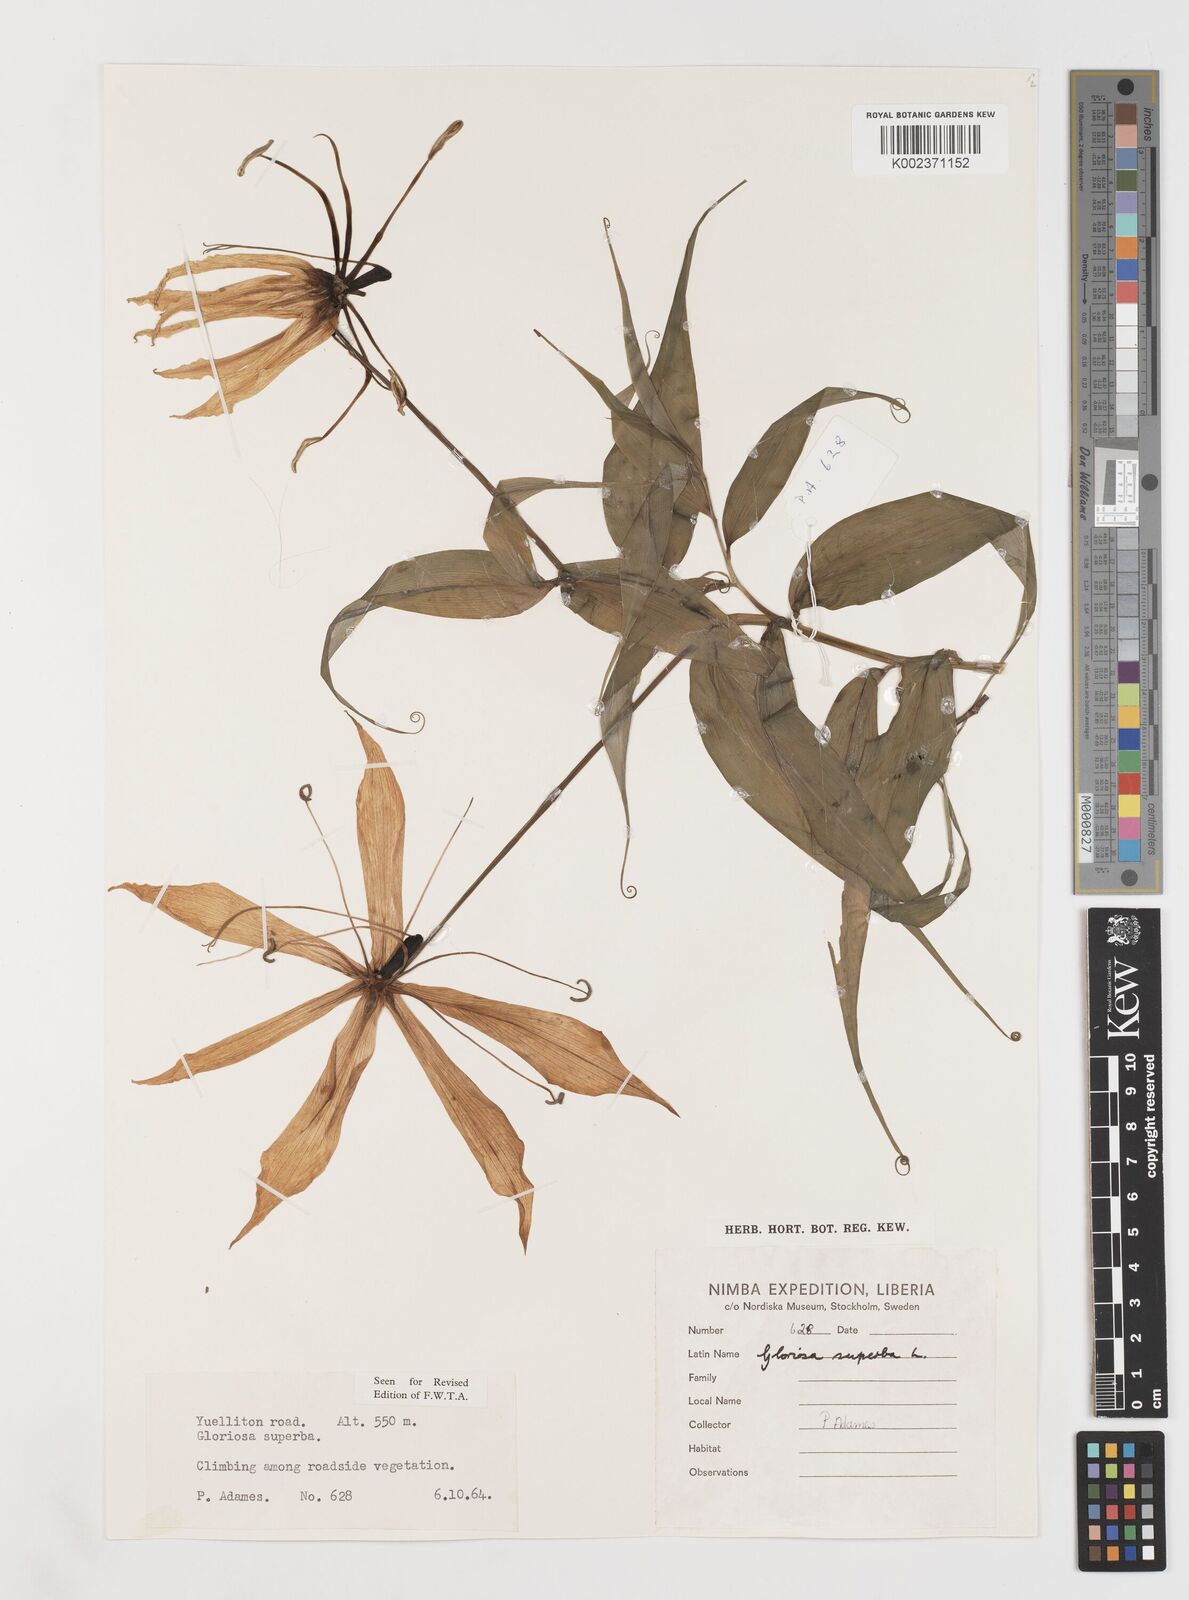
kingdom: Plantae
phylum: Tracheophyta
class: Liliopsida
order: Liliales
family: Colchicaceae
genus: Gloriosa
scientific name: Gloriosa simplex
